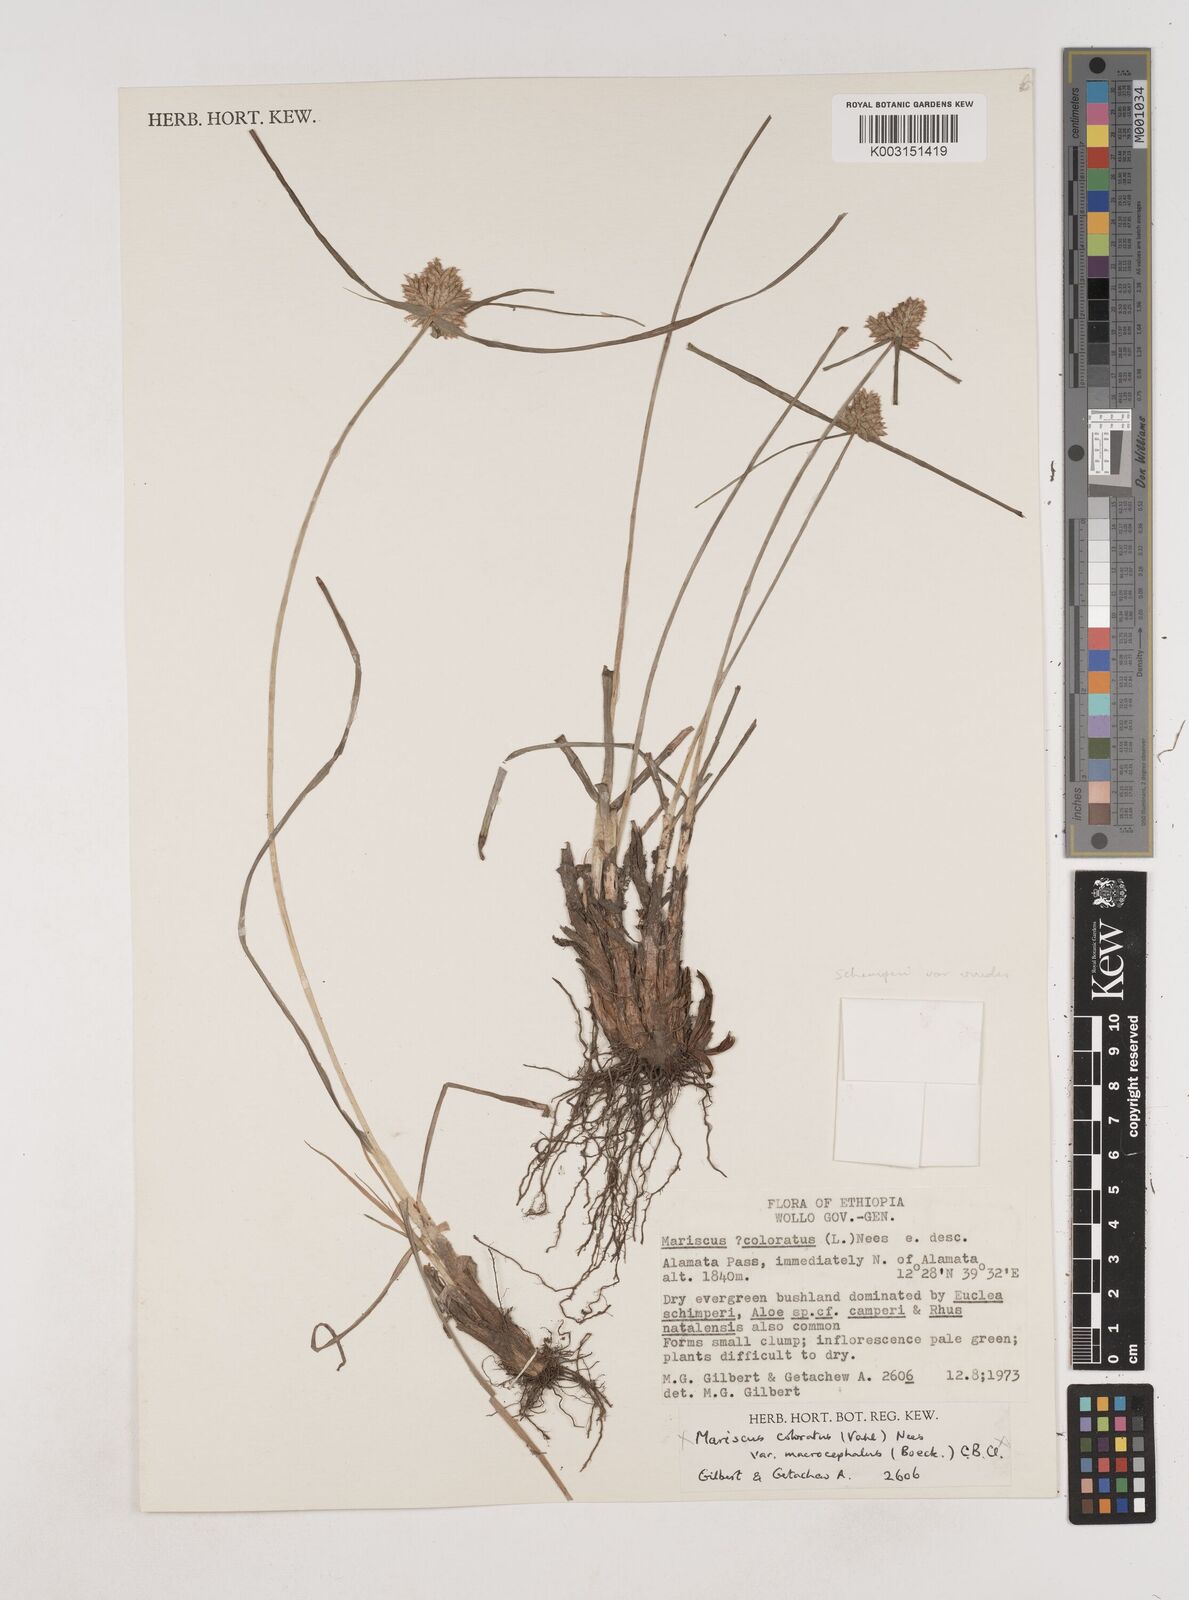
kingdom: Plantae
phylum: Tracheophyta
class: Liliopsida
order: Poales
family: Cyperaceae
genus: Cyperus
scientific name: Cyperus cruentus
